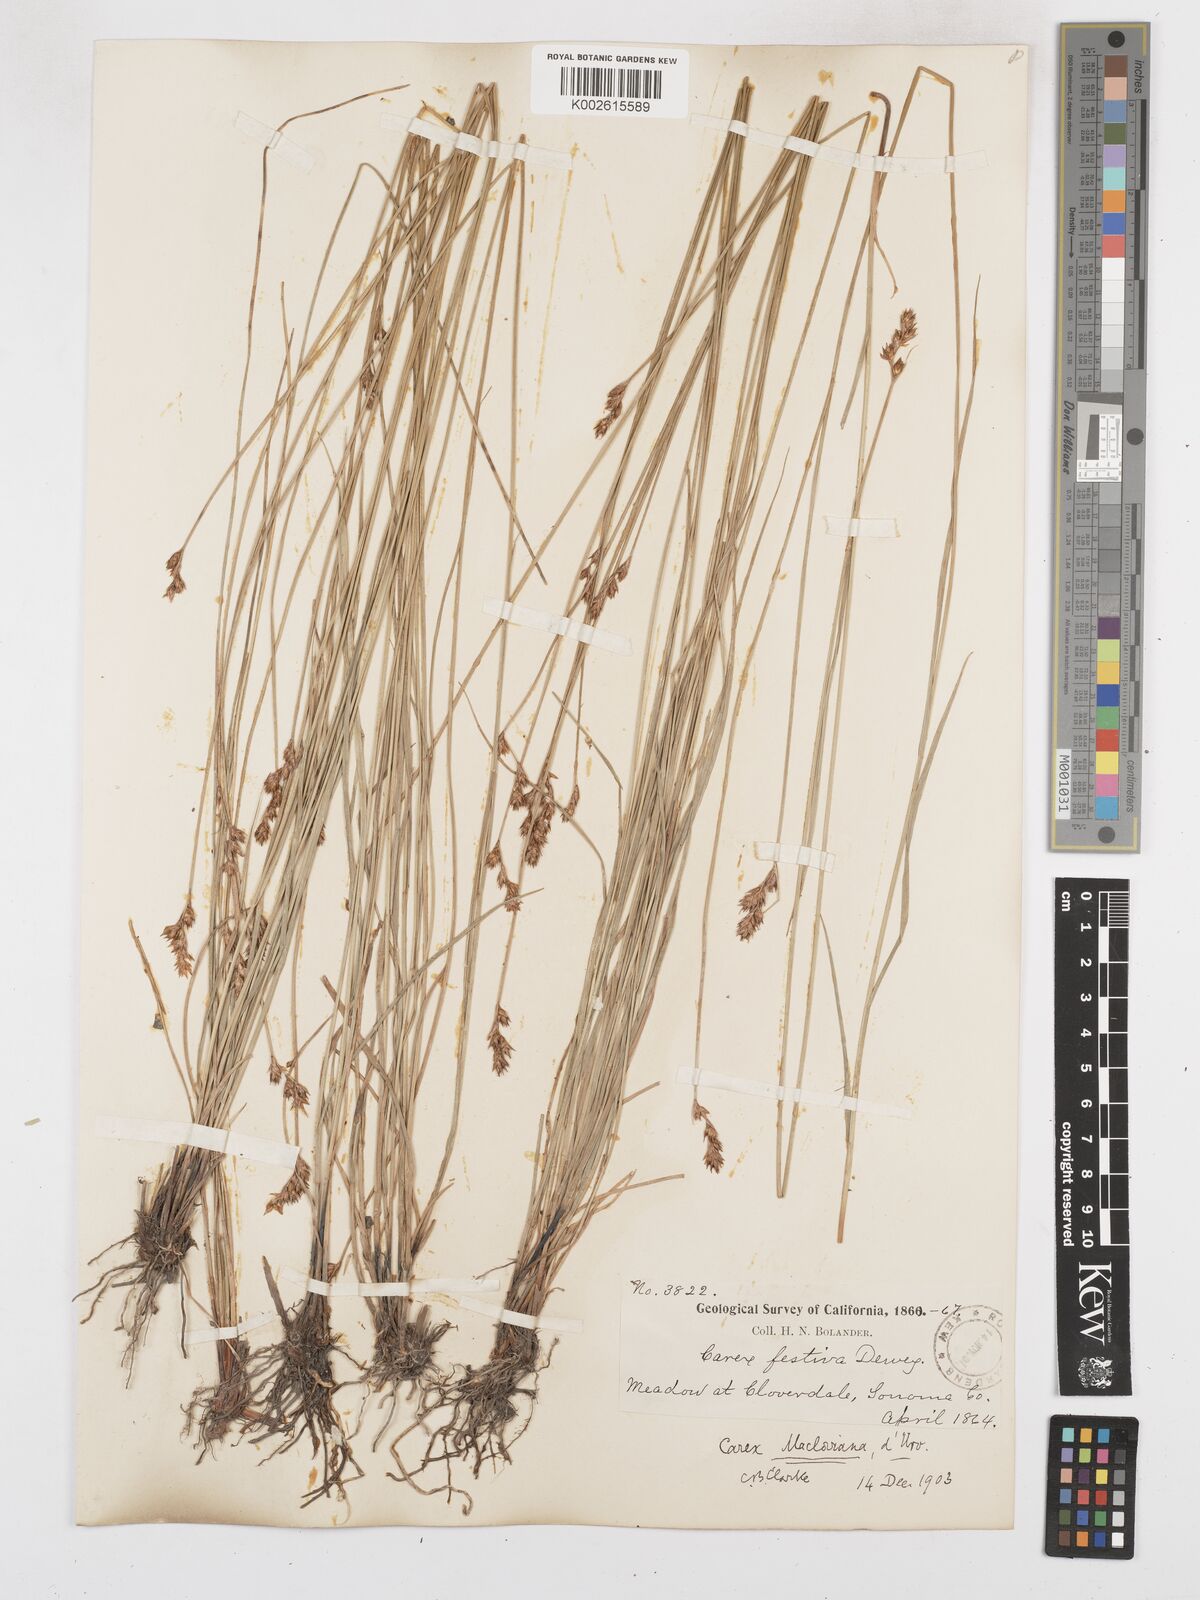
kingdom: Plantae
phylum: Tracheophyta
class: Liliopsida
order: Poales
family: Cyperaceae
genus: Carex
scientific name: Carex macloviana
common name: Falkland island sedge
